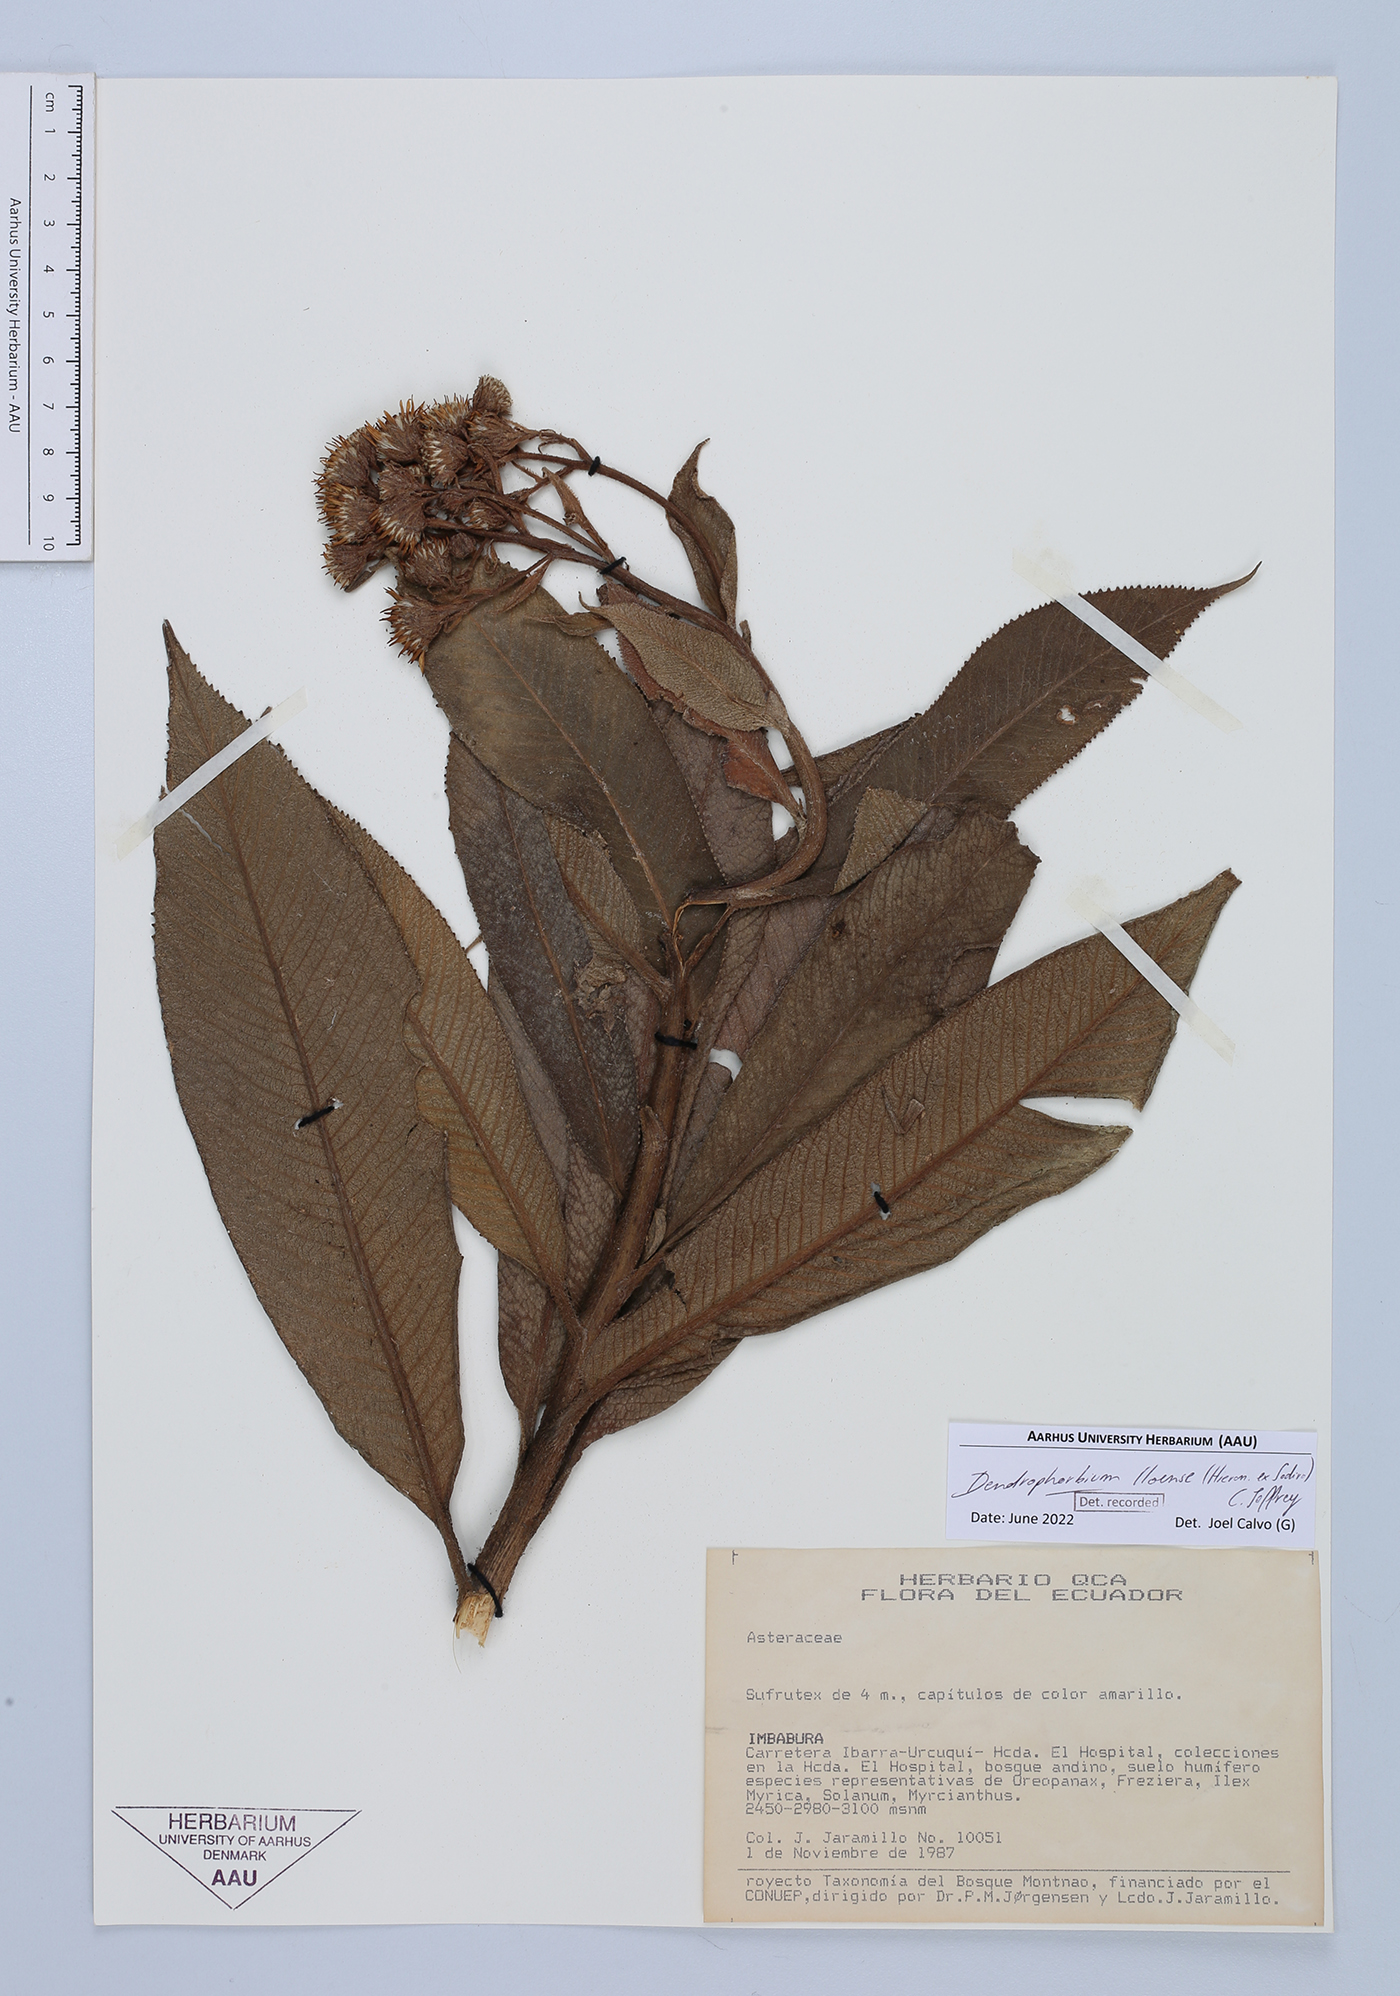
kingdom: Plantae
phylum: Tracheophyta
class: Magnoliopsida
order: Asterales
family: Asteraceae
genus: Dendrophorbium
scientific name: Dendrophorbium lloense
